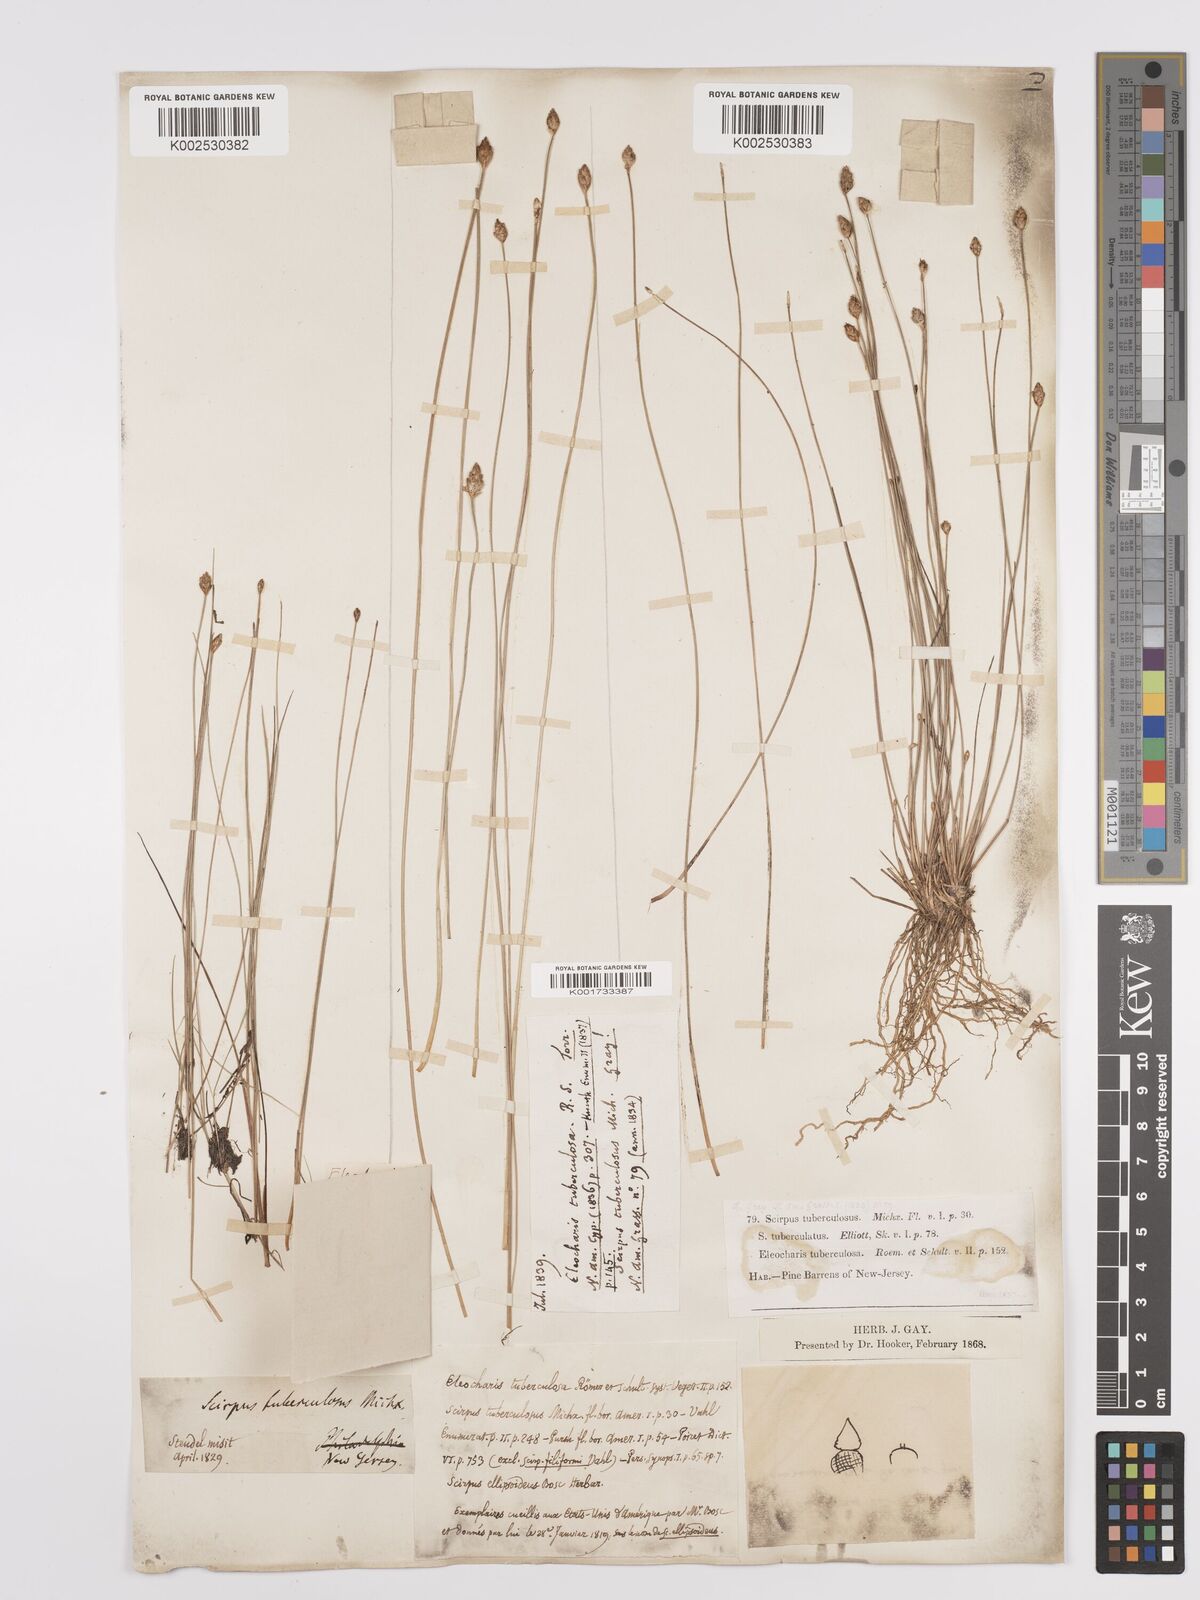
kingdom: Plantae
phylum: Tracheophyta
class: Liliopsida
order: Poales
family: Cyperaceae
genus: Eleocharis
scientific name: Eleocharis tuberculosa
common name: Cone-cup spikerush
